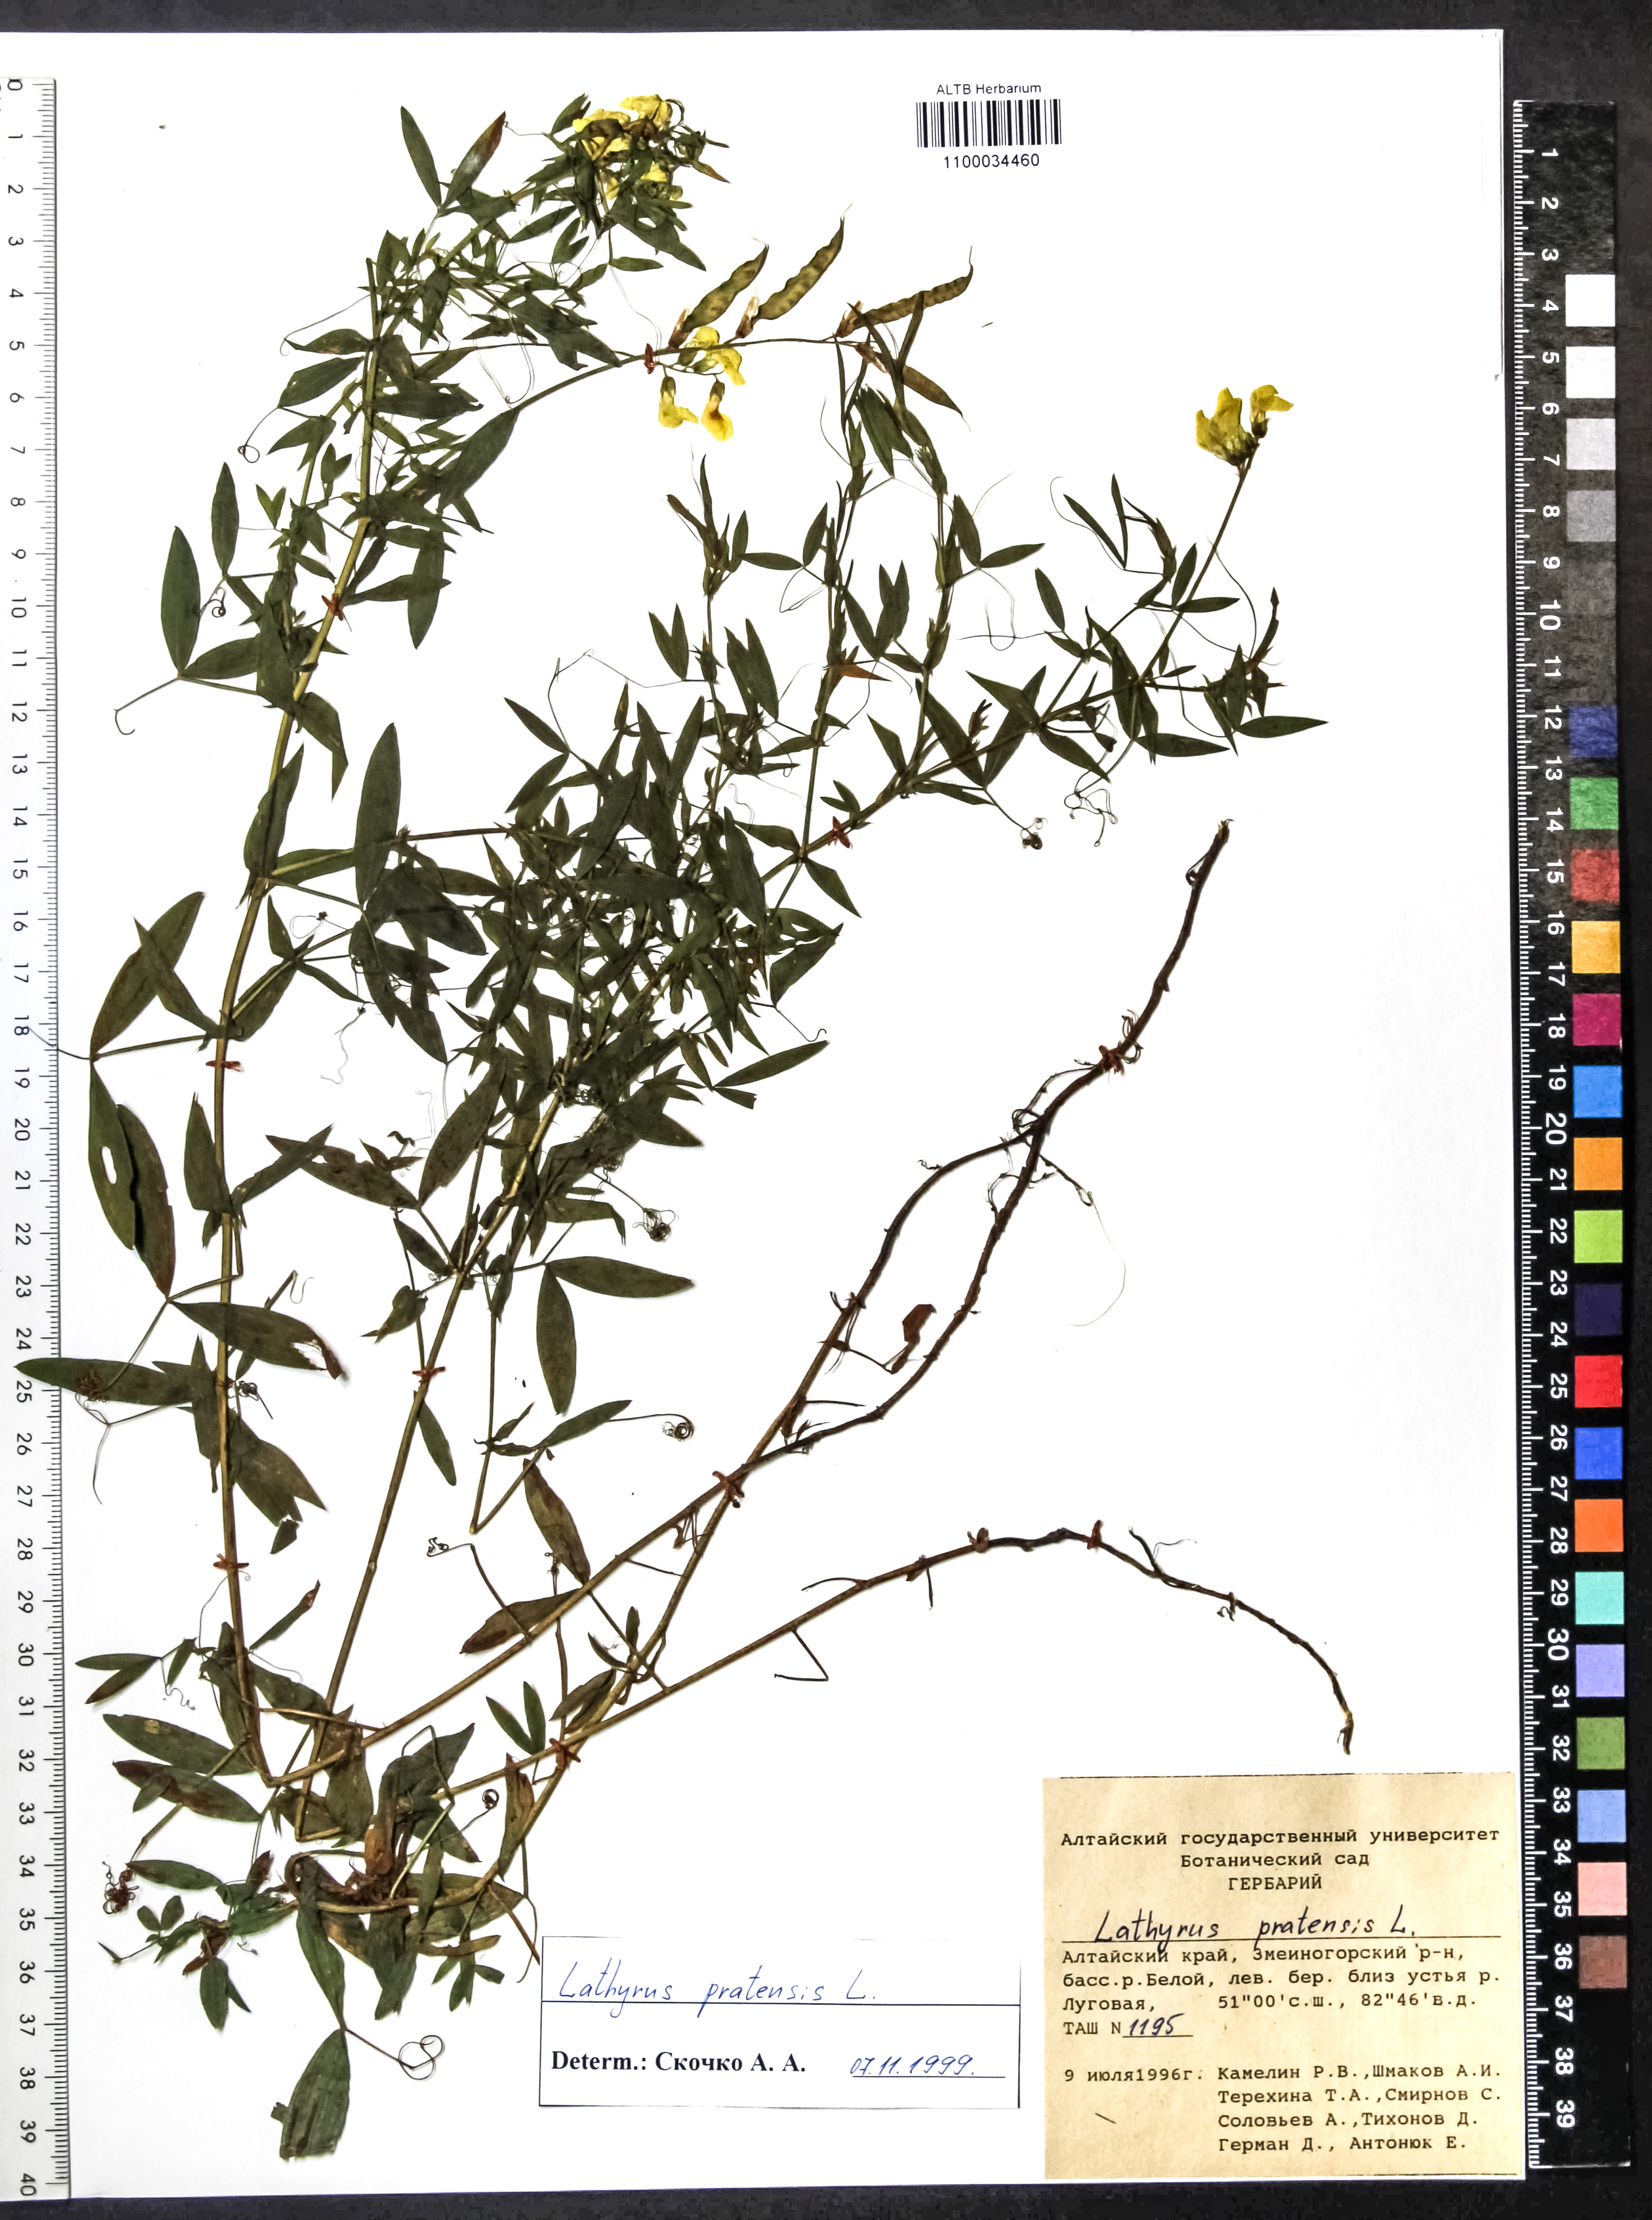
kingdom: Plantae
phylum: Tracheophyta
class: Magnoliopsida
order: Fabales
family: Fabaceae
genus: Lathyrus
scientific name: Lathyrus pratensis
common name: Meadow vetchling
